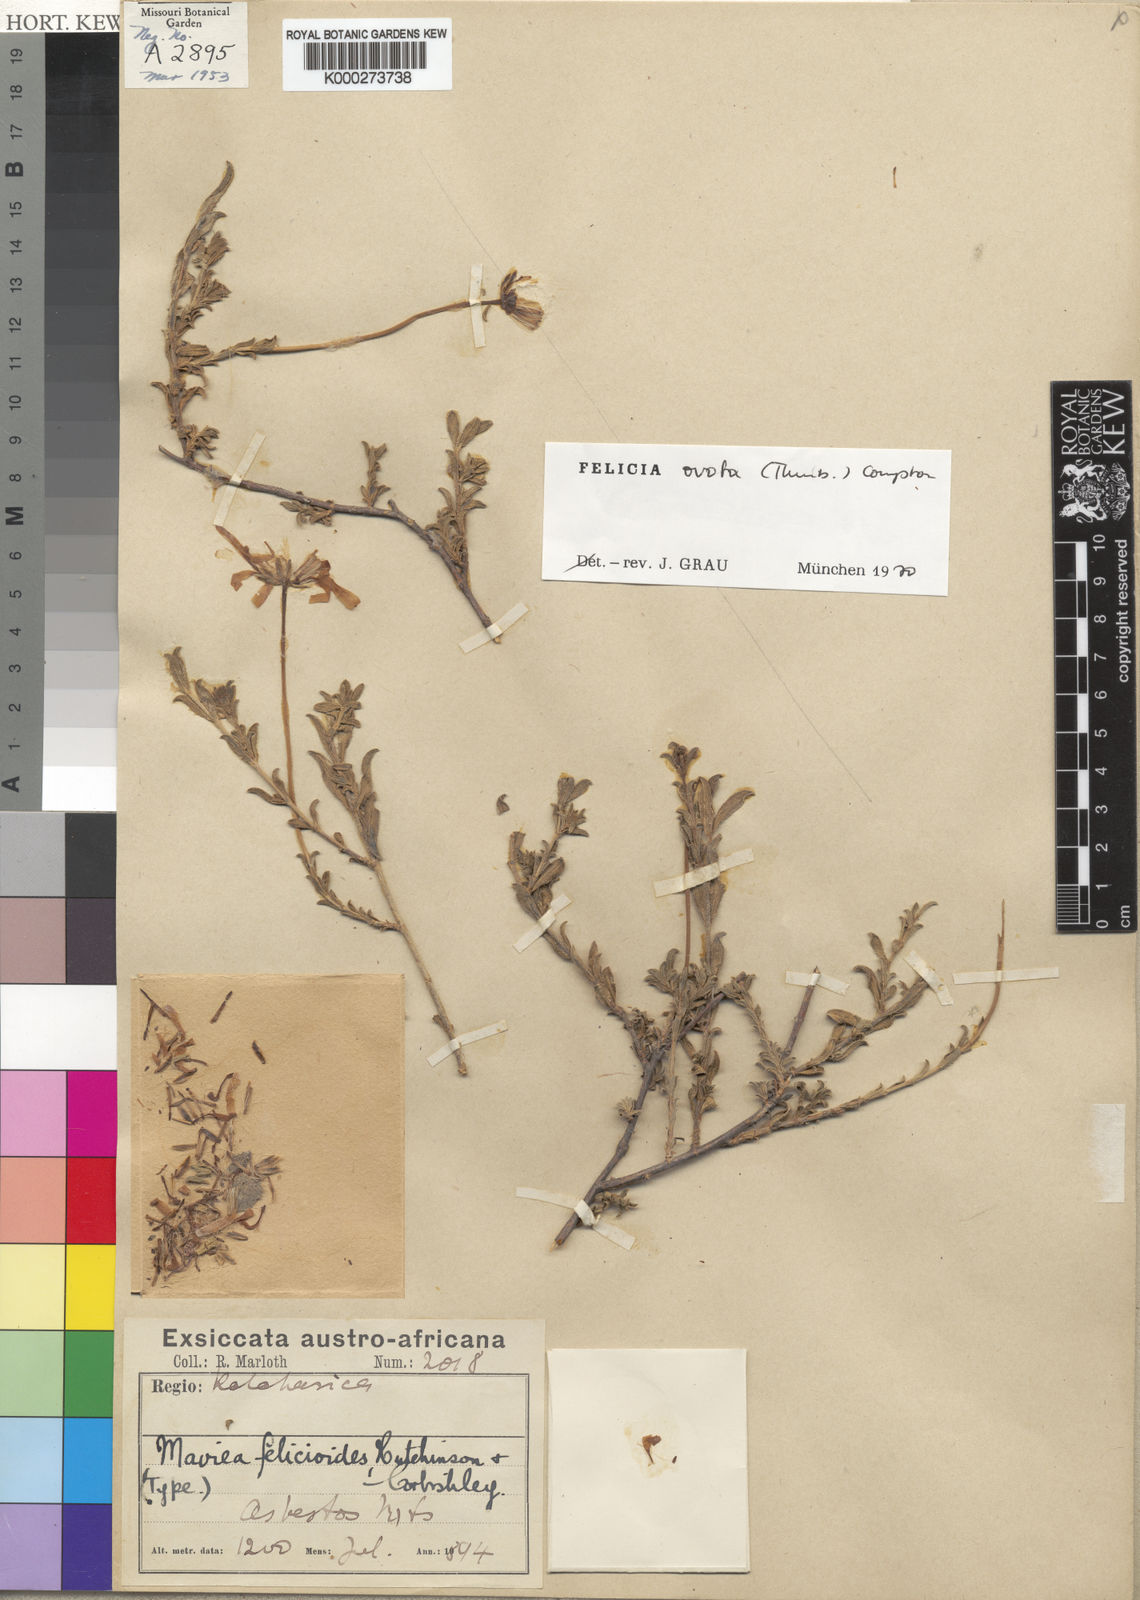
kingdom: Plantae
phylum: Tracheophyta
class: Magnoliopsida
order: Asterales
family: Asteraceae
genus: Felicia
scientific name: Felicia ovata
